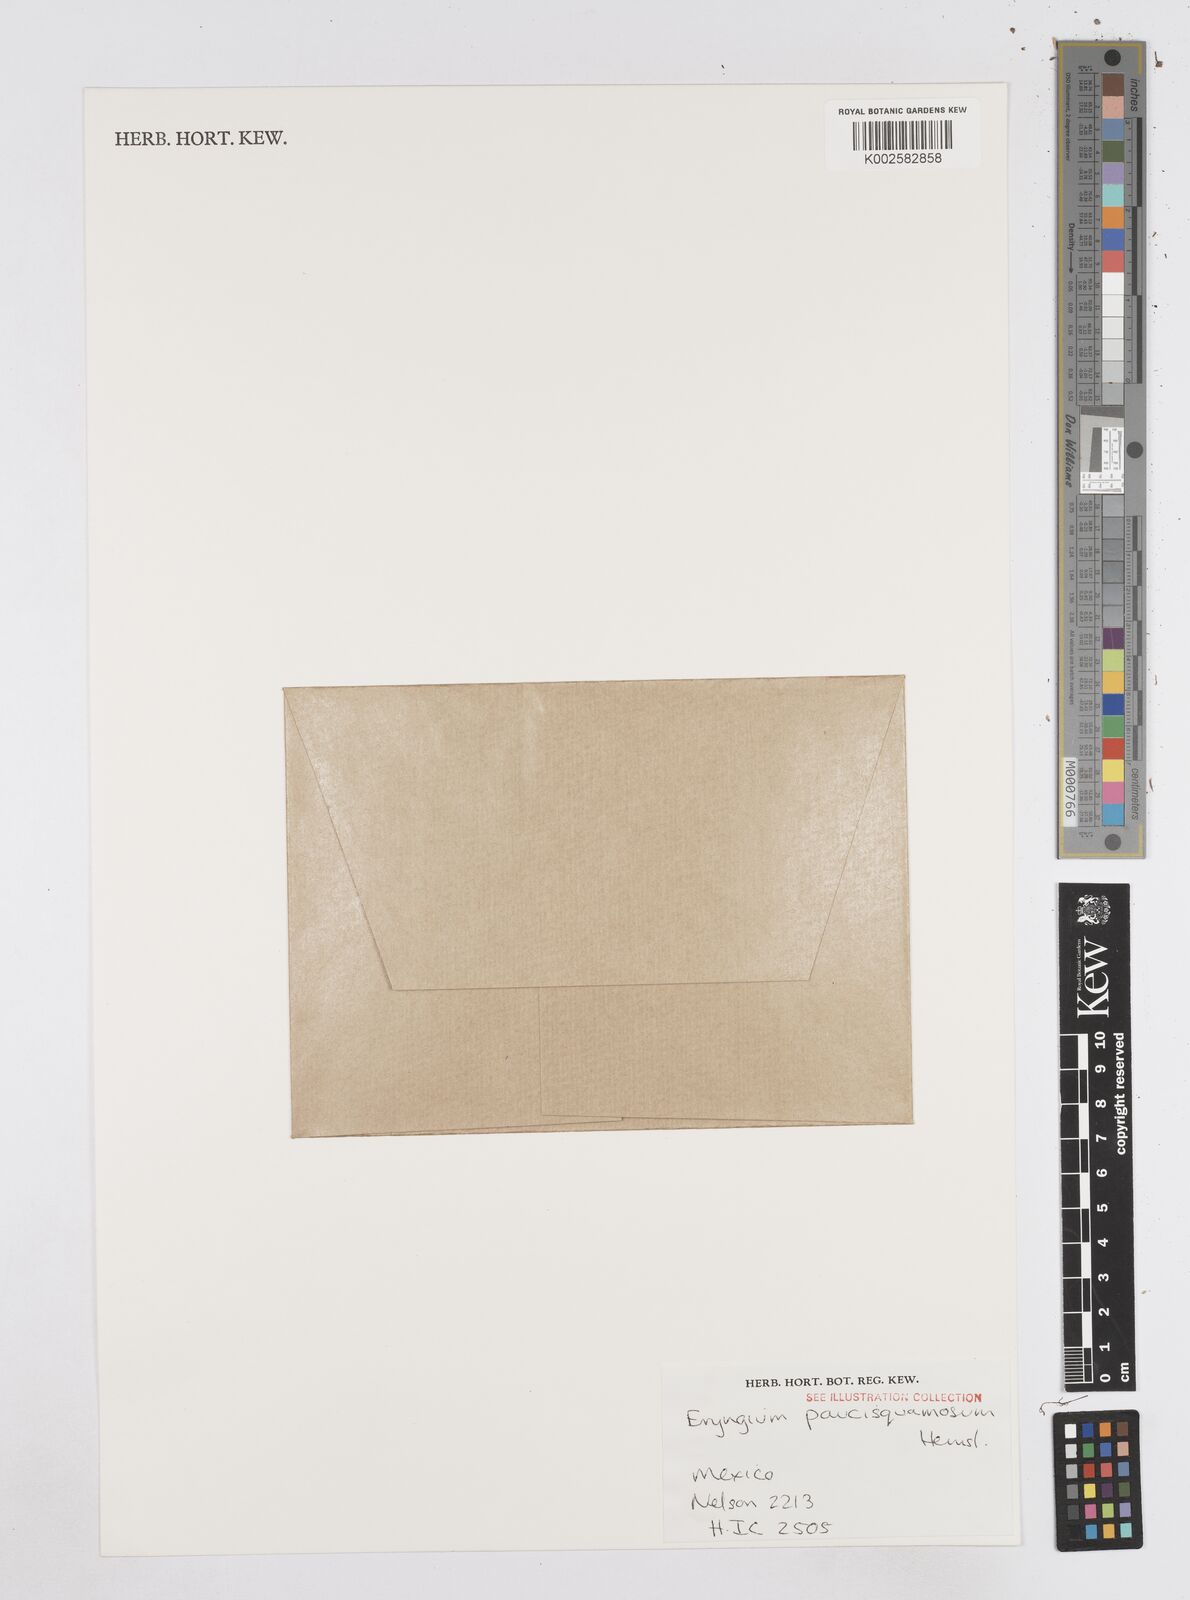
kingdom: Plantae
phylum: Tracheophyta
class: Magnoliopsida
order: Apiales
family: Apiaceae
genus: Eryngium
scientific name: Eryngium gracile
